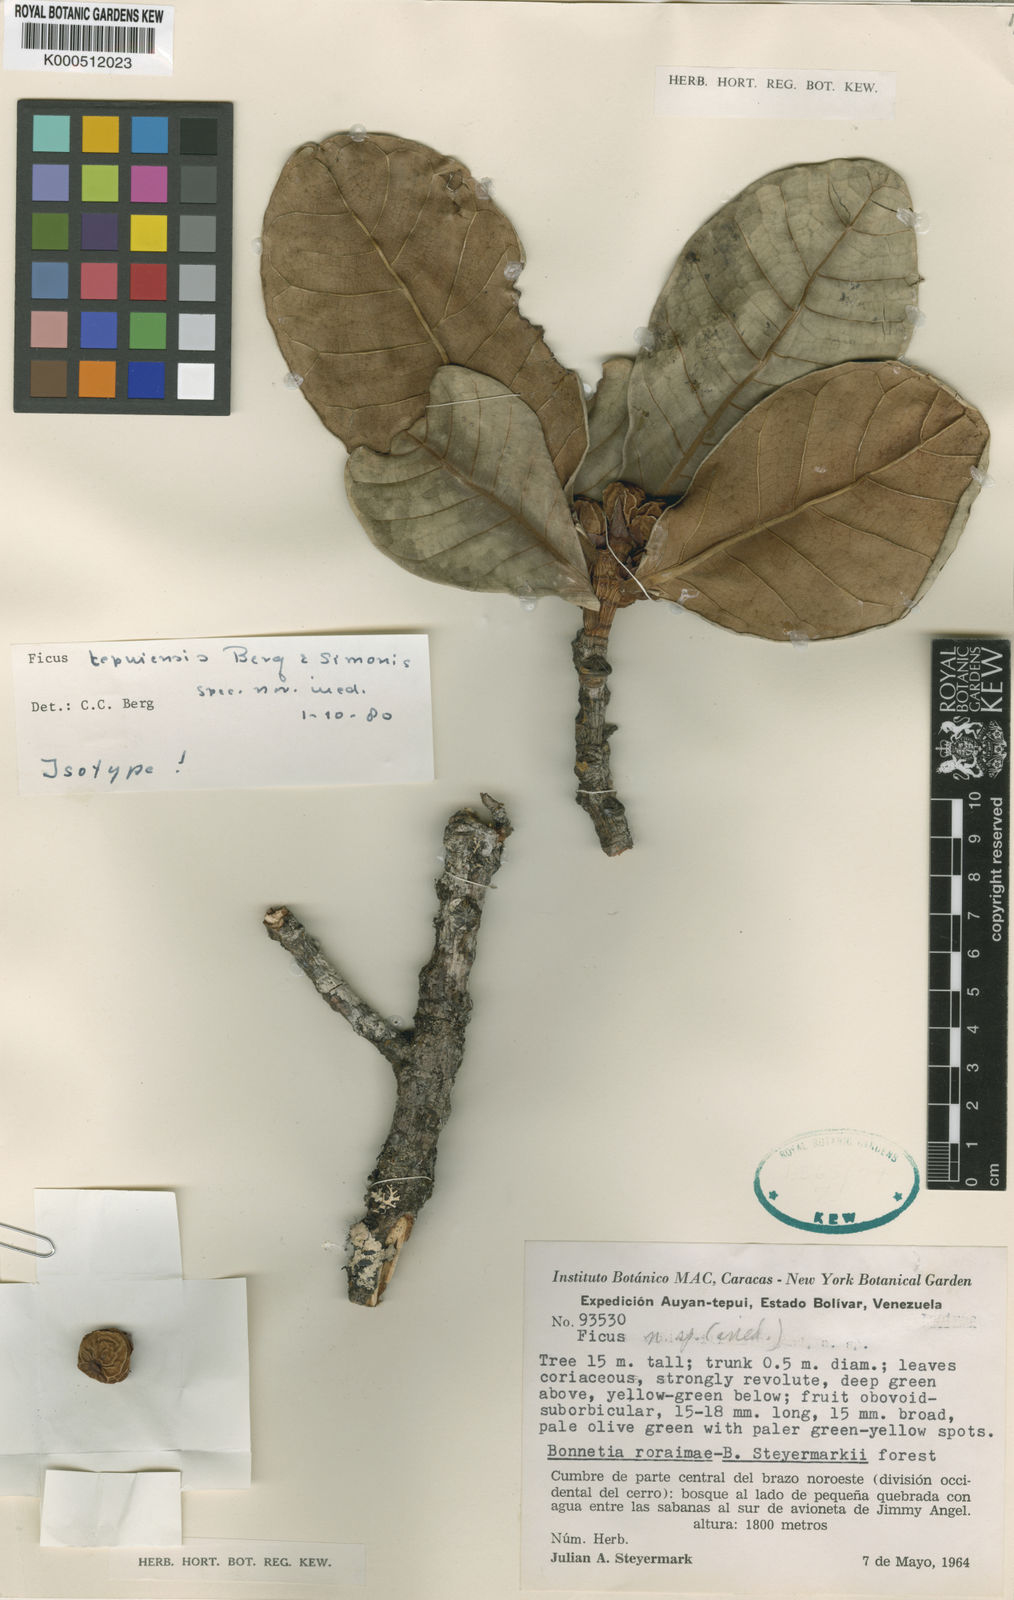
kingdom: Plantae
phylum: Tracheophyta
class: Magnoliopsida
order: Rosales
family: Moraceae
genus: Ficus
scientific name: Ficus tepuiensis
